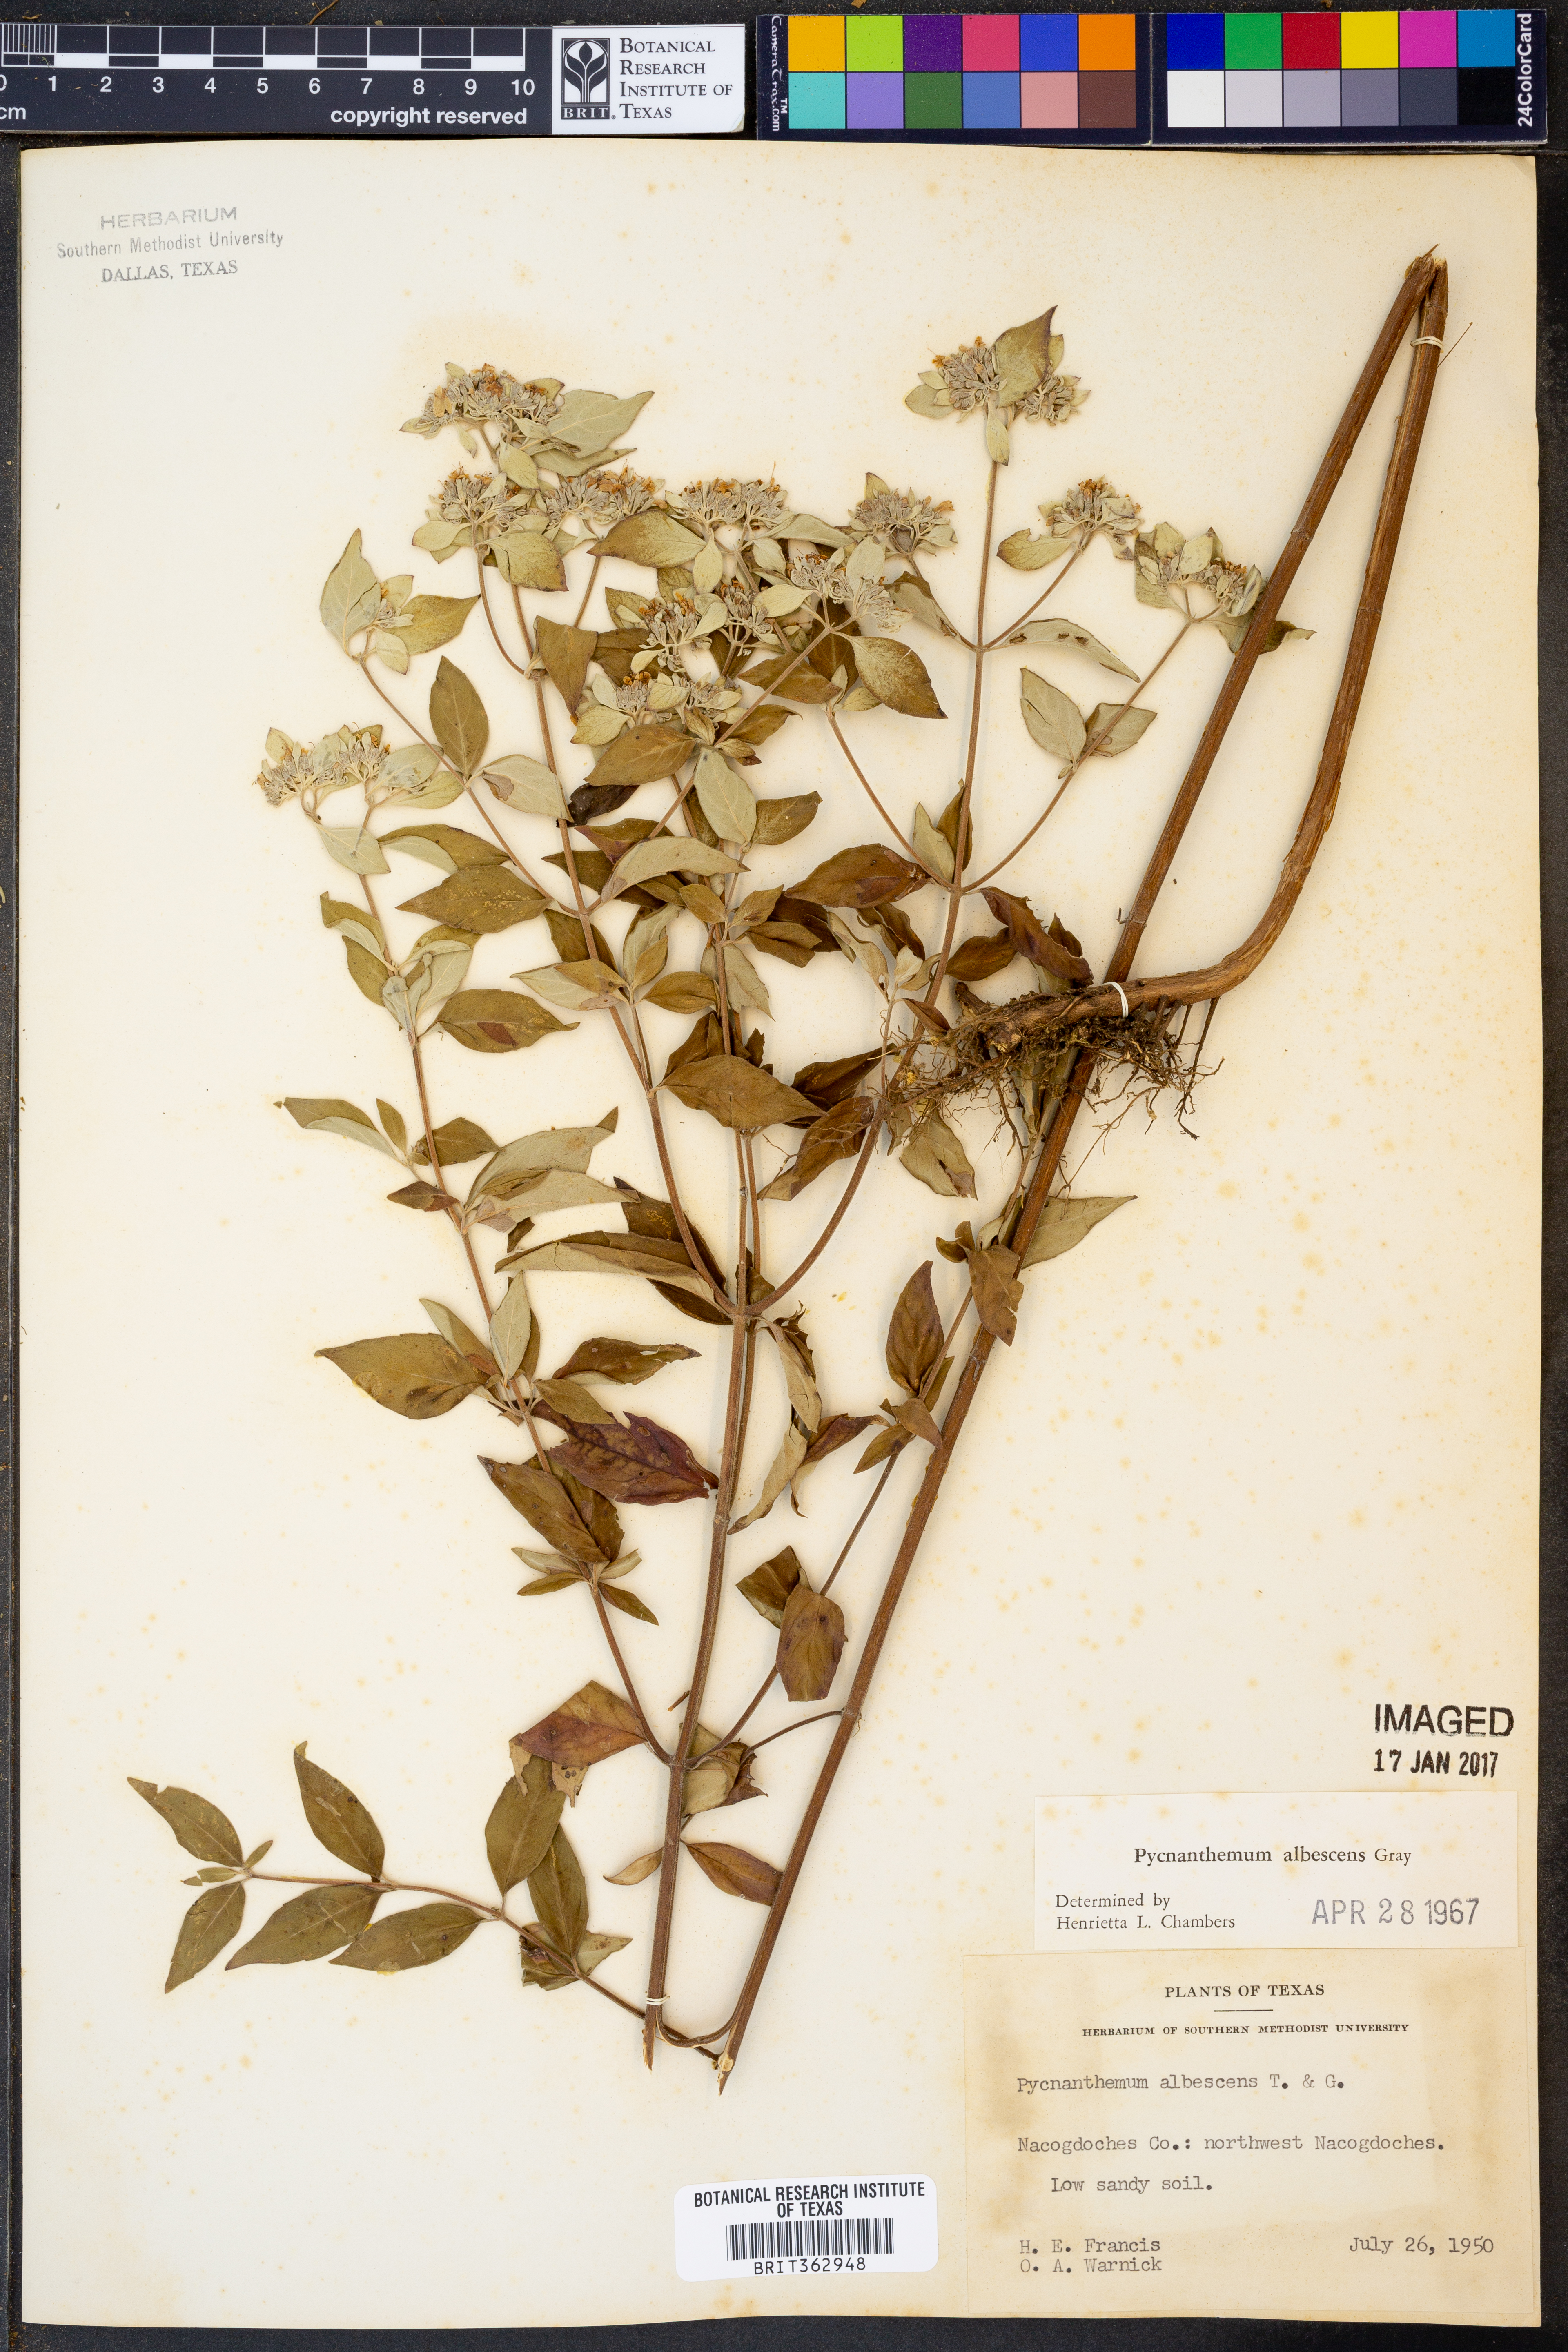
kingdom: Plantae
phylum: Tracheophyta
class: Magnoliopsida
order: Lamiales
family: Lamiaceae
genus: Pycnanthemum
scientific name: Pycnanthemum albescens
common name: White-leaf mountain-mint
